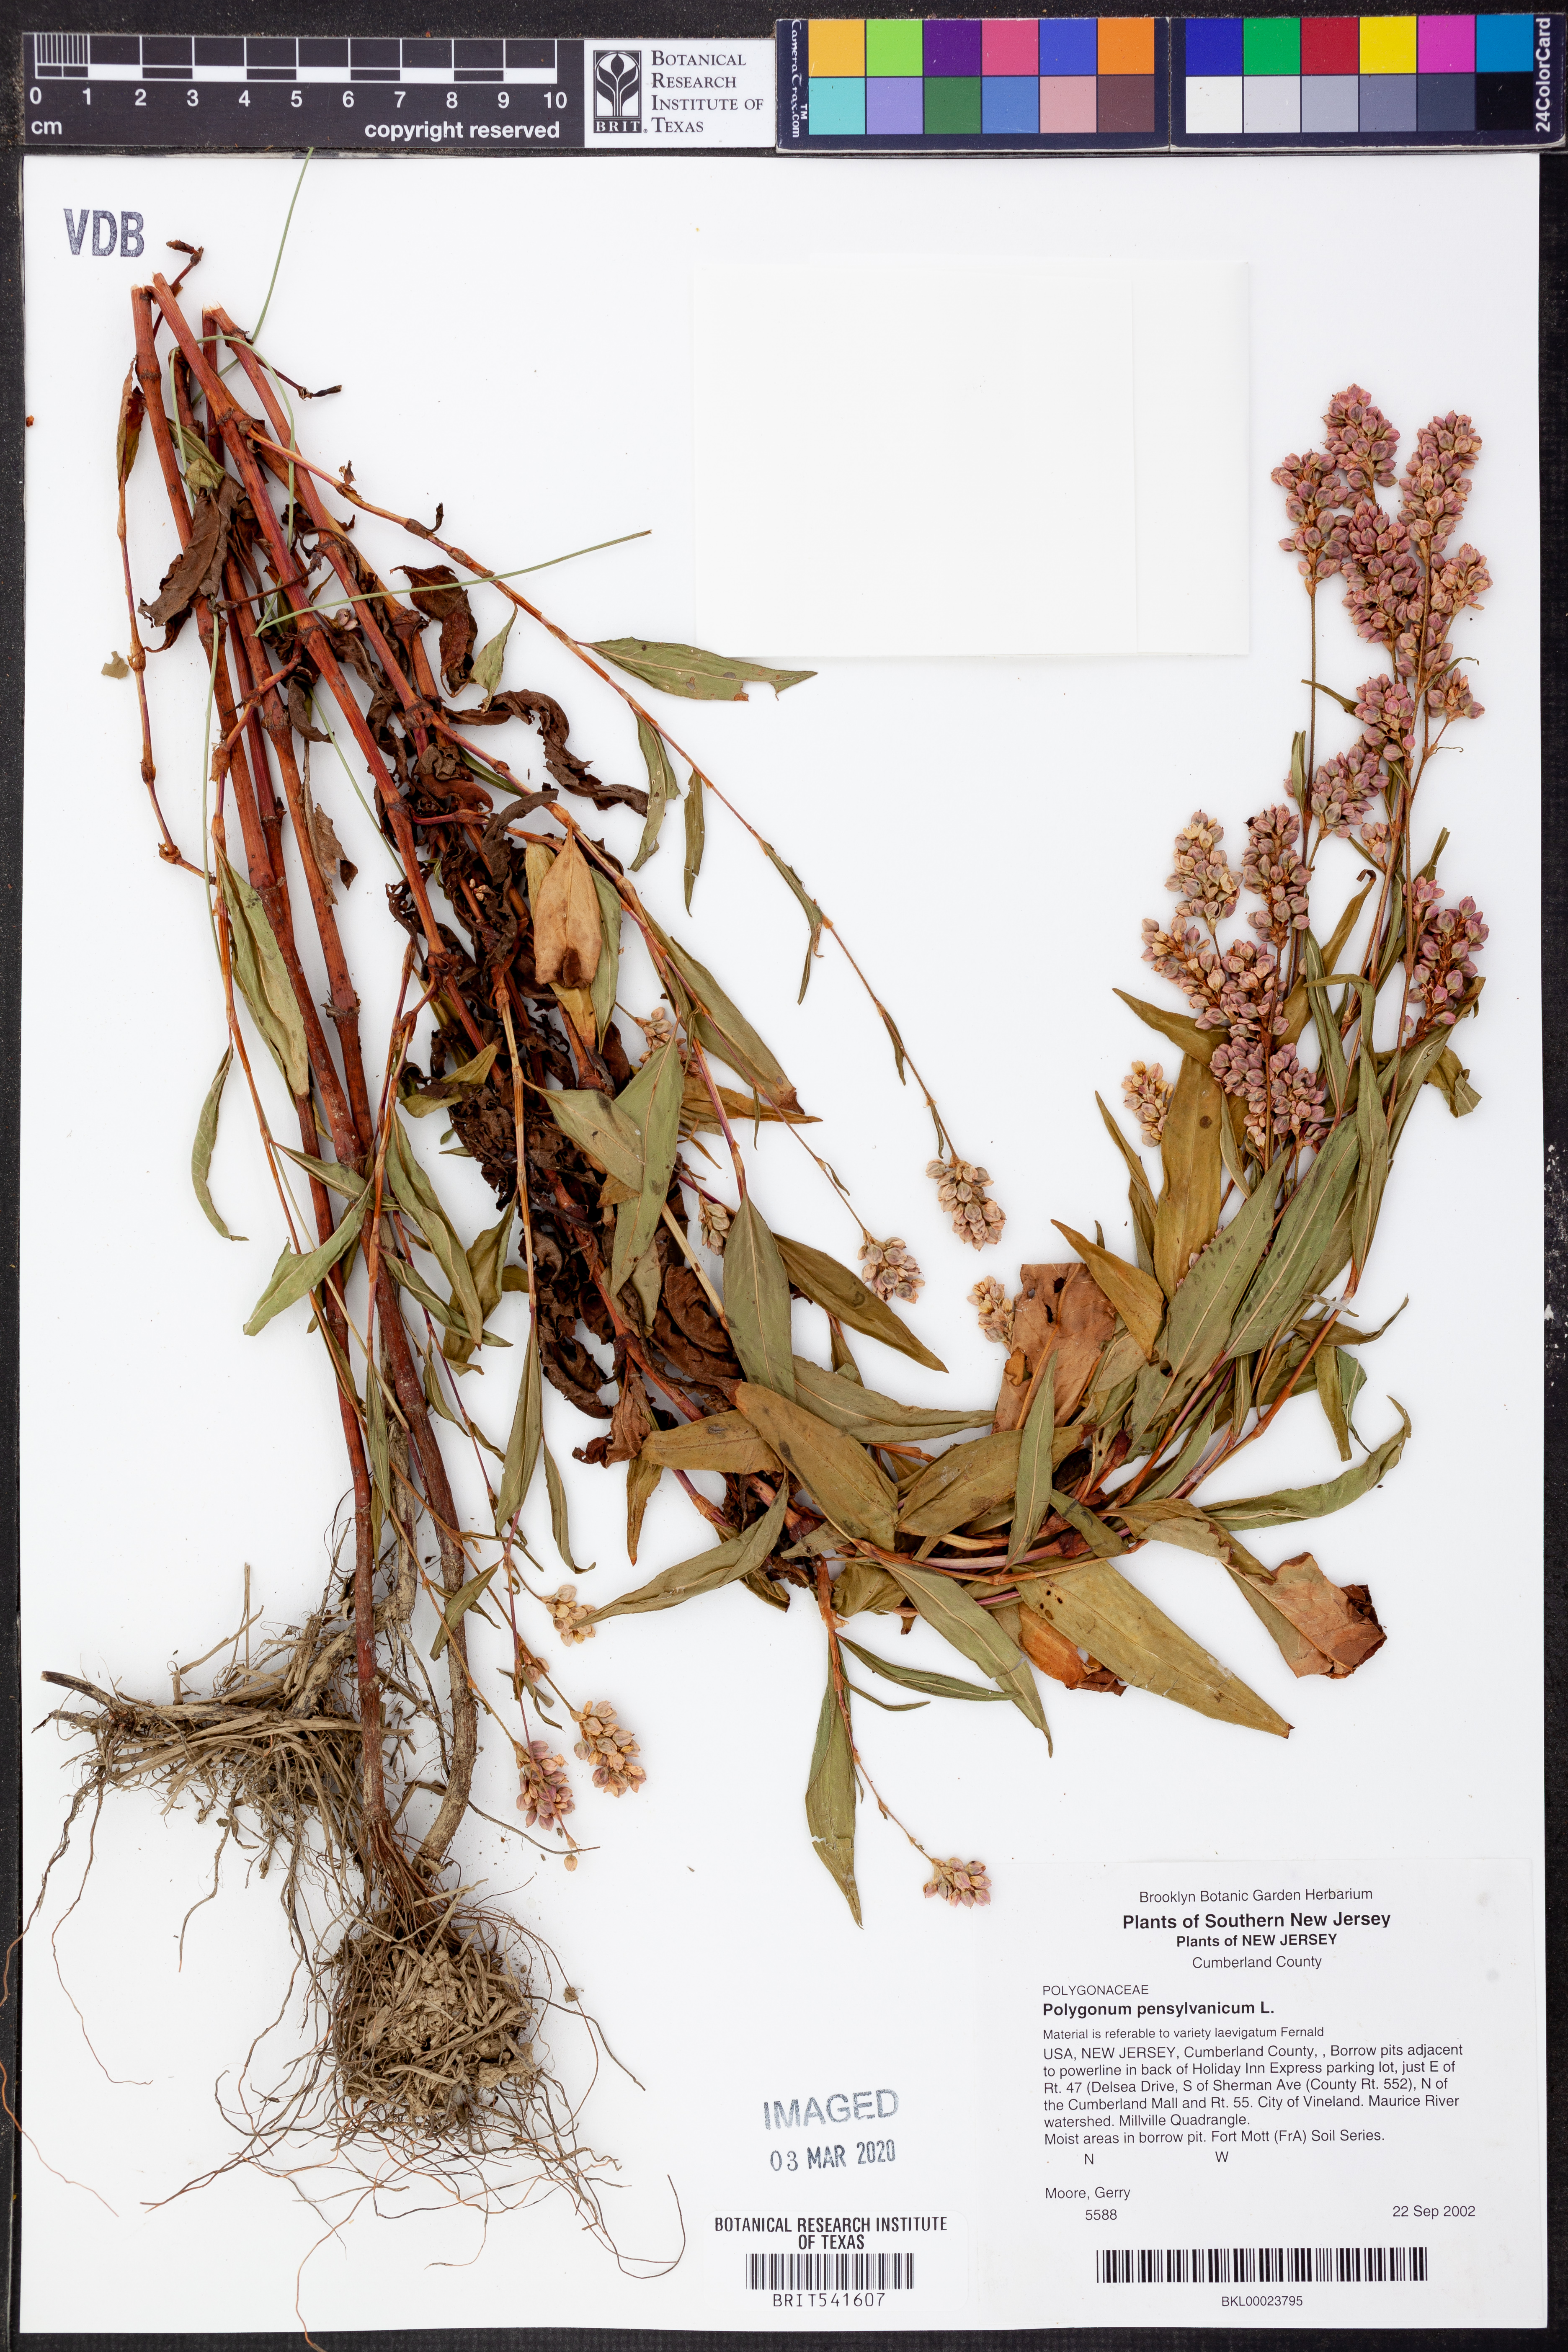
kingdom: Plantae
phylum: Tracheophyta
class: Magnoliopsida
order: Caryophyllales
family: Polygonaceae
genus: Persicaria
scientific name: Persicaria pensylvanica
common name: Pinkweed
